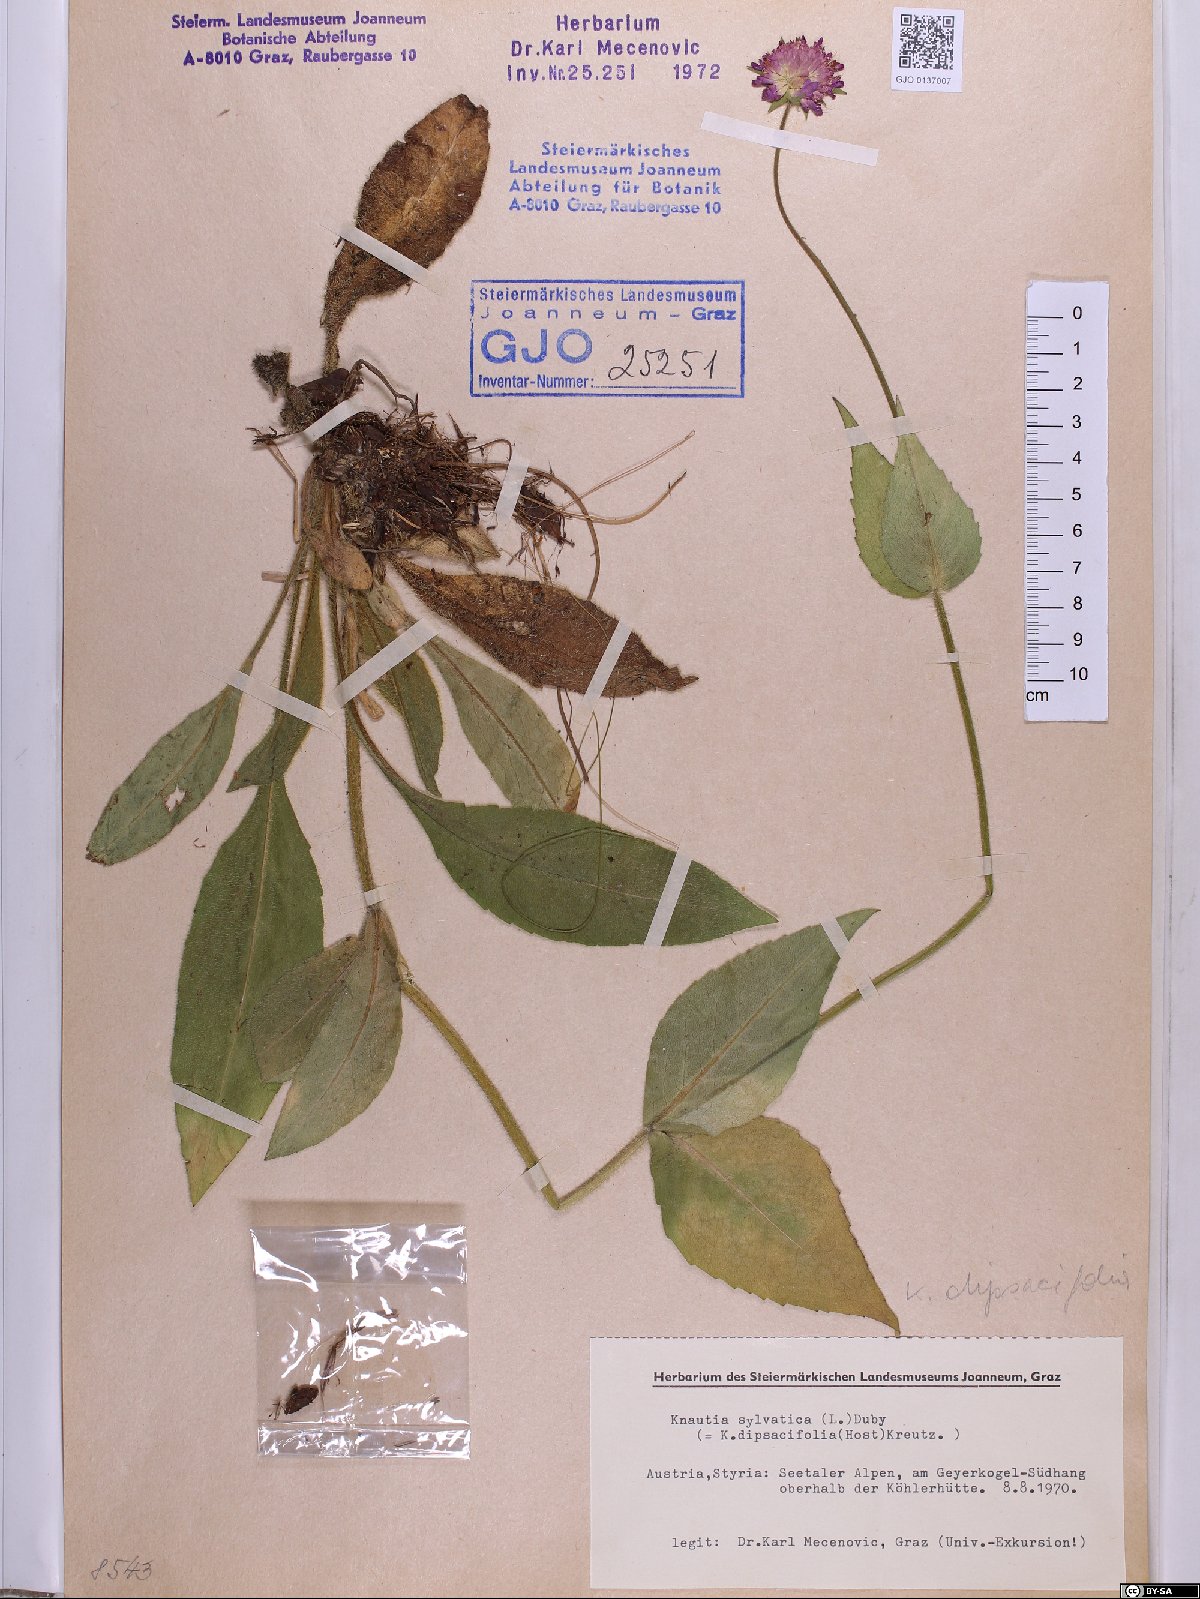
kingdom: Plantae
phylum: Tracheophyta
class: Magnoliopsida
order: Dipsacales
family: Caprifoliaceae
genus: Knautia
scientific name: Knautia dipsacifolia
